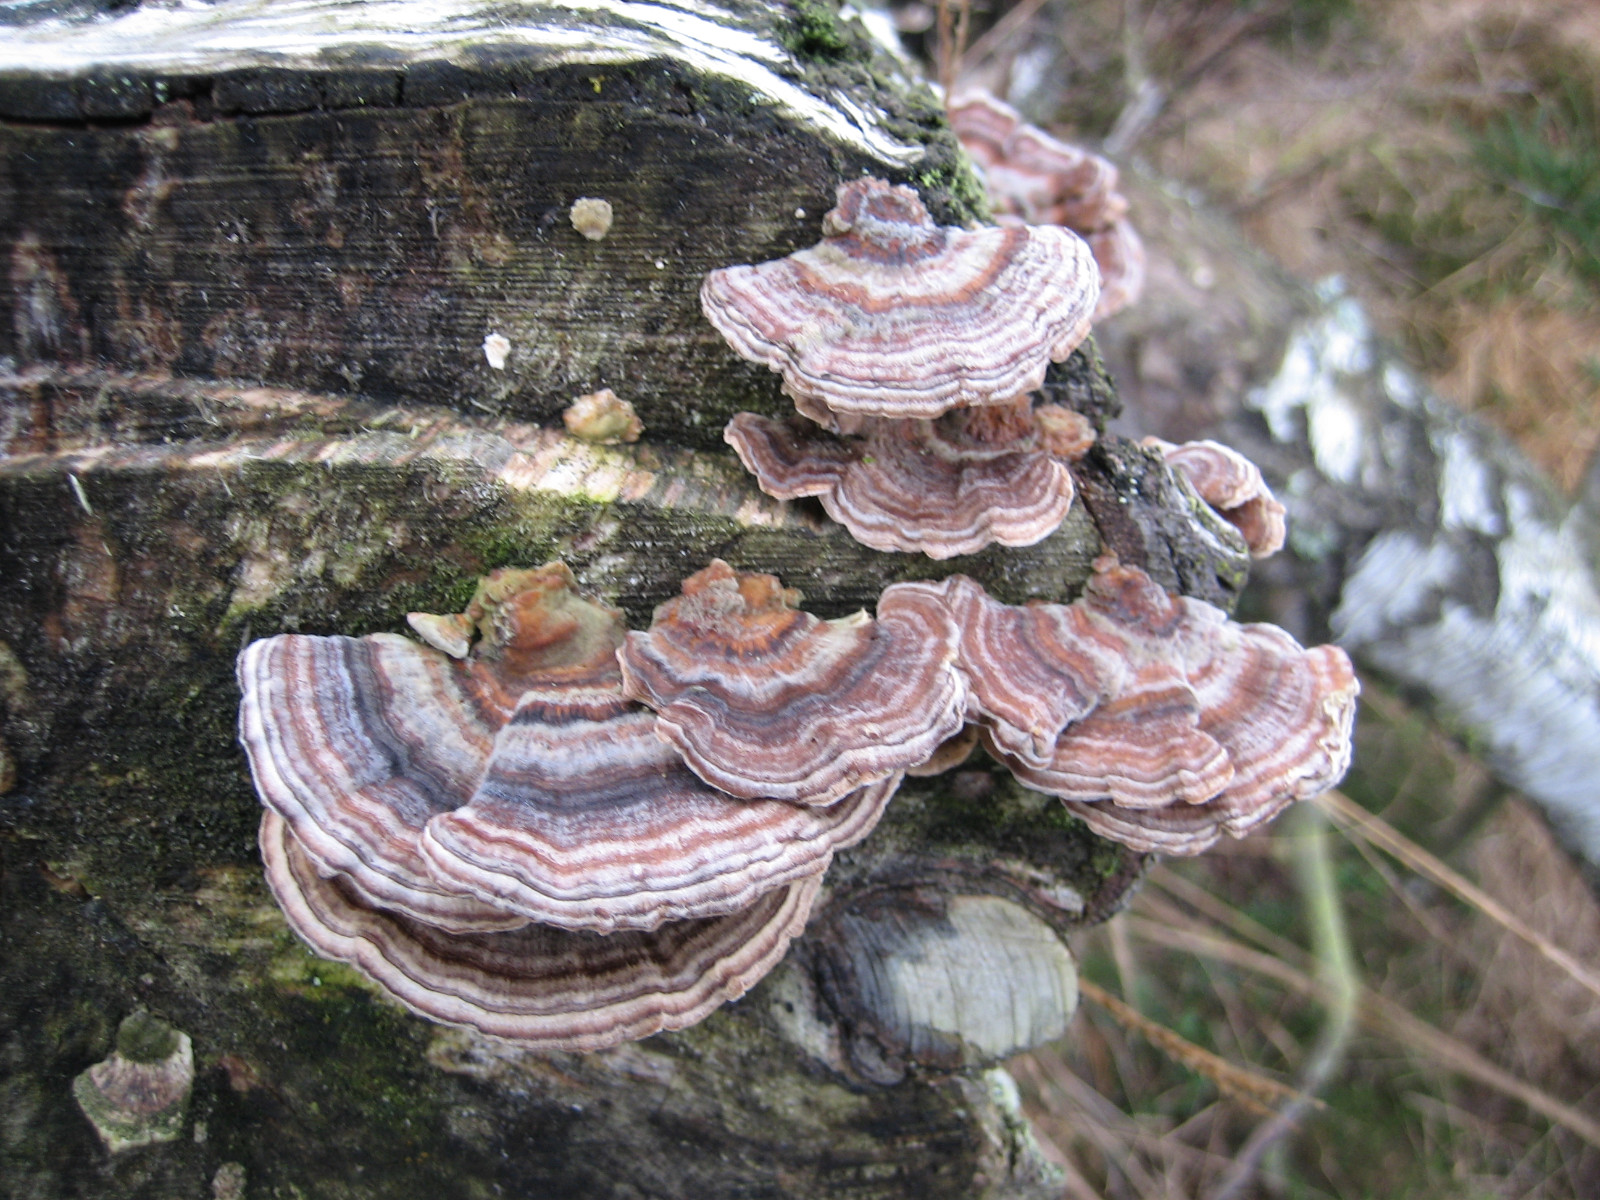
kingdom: Fungi
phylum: Basidiomycota
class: Agaricomycetes
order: Polyporales
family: Polyporaceae
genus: Trametes
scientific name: Trametes versicolor
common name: broget læderporesvamp
